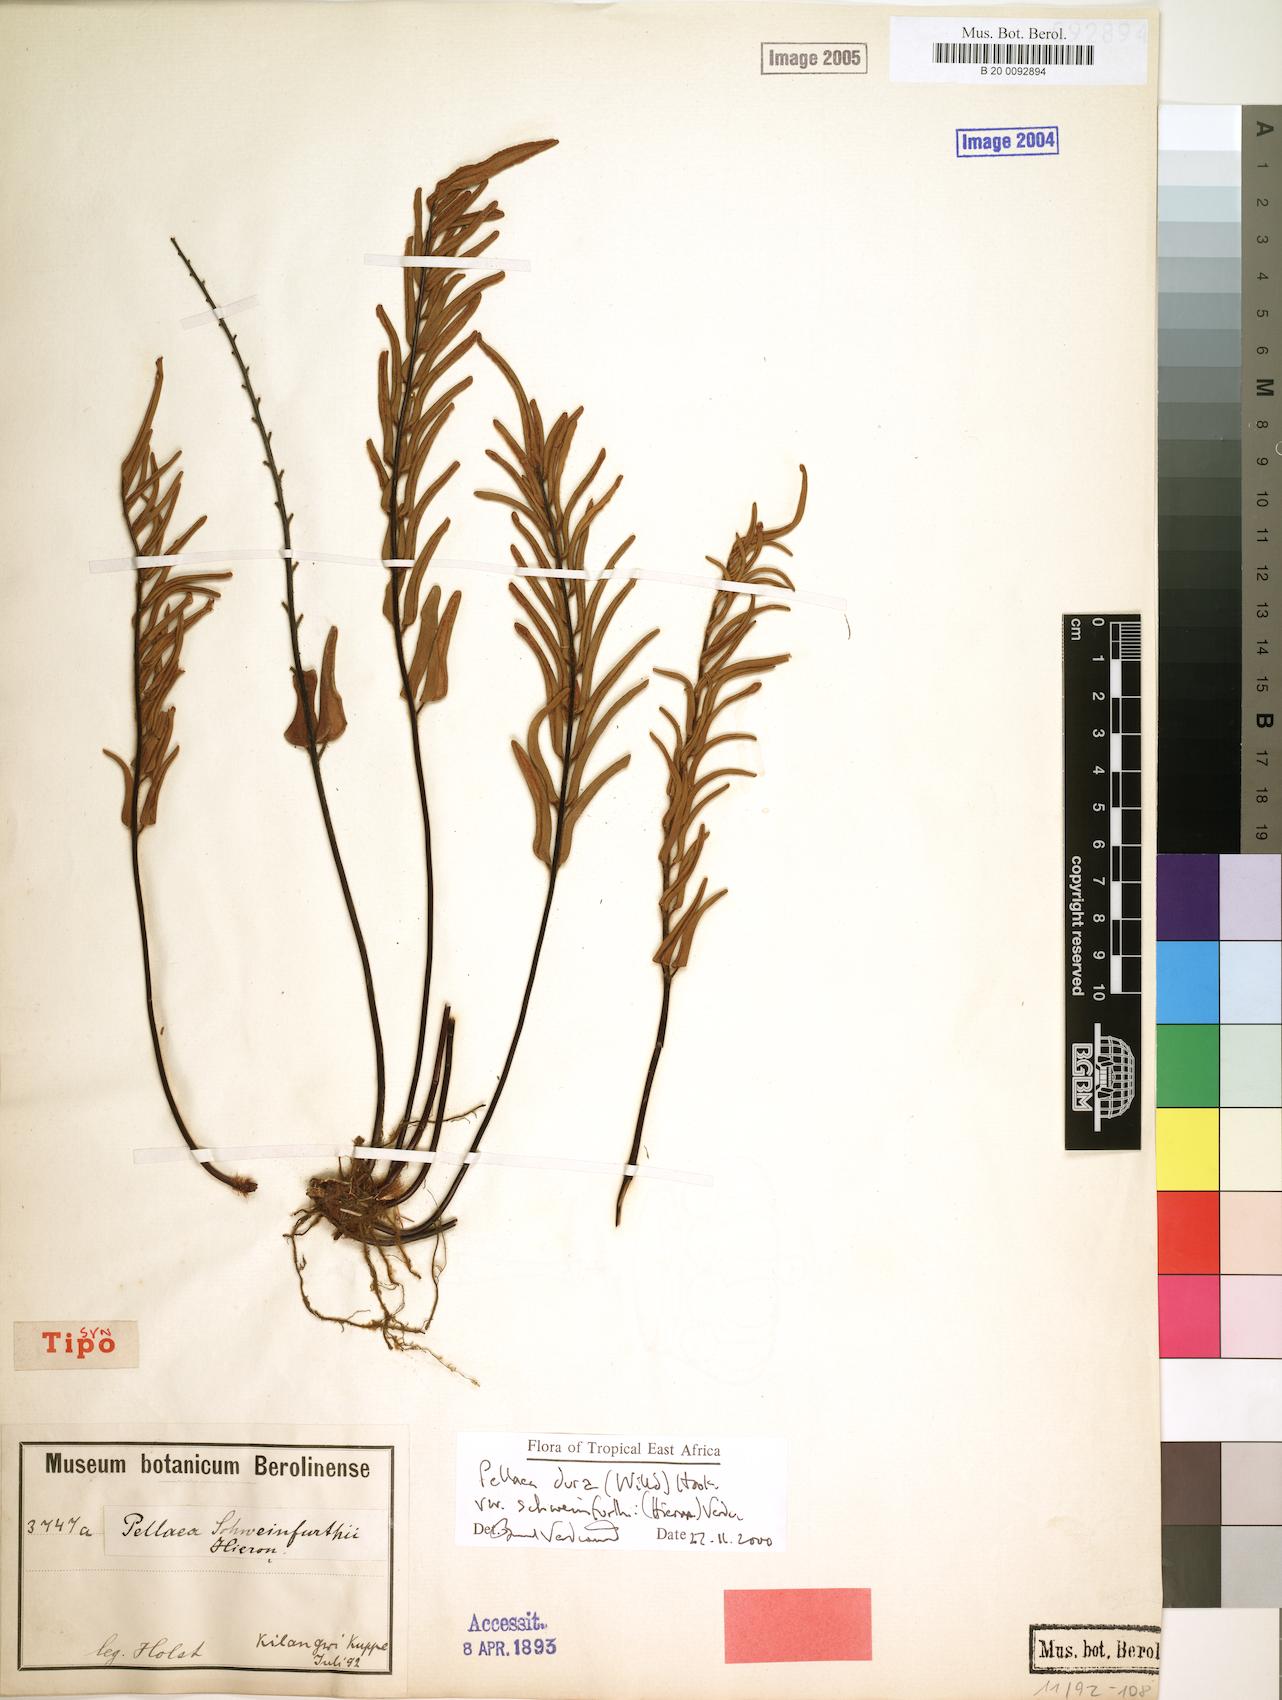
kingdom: Plantae
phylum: Tracheophyta
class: Polypodiopsida
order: Polypodiales
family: Pteridaceae
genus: Pellaea
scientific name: Pellaea dura
